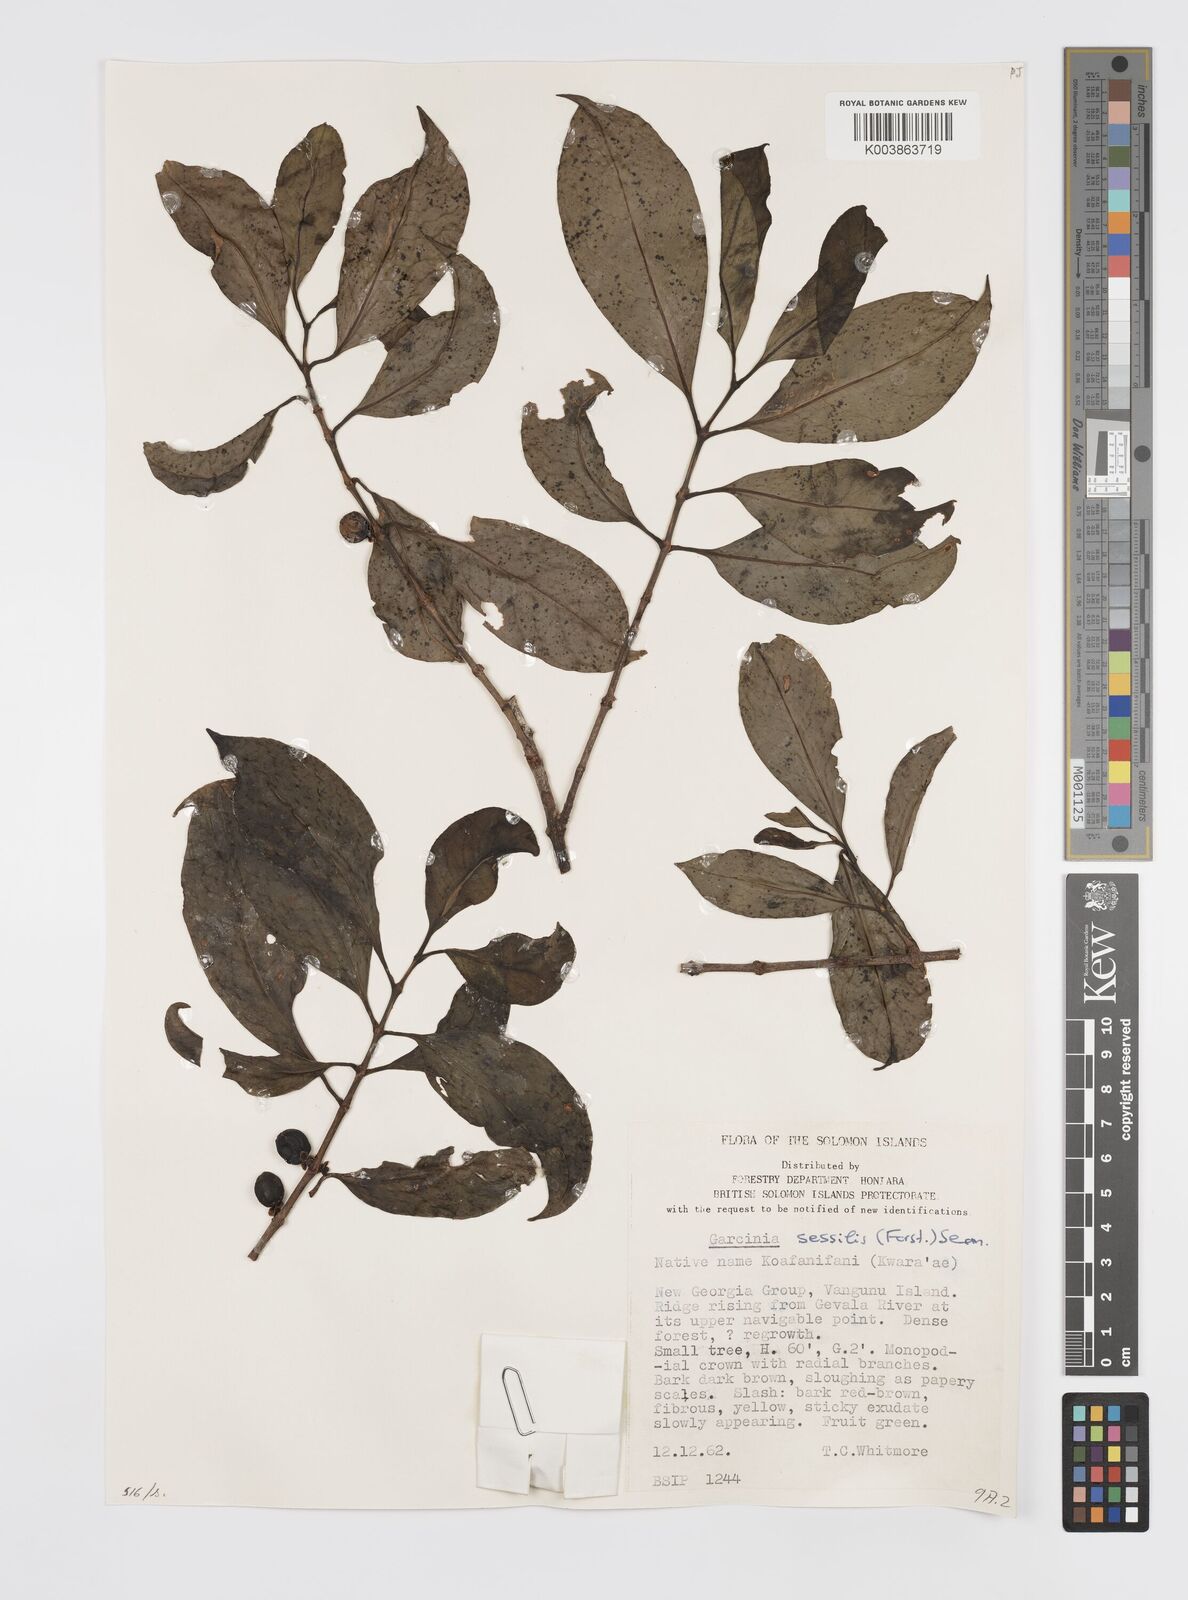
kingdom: Plantae
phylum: Tracheophyta
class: Magnoliopsida
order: Malpighiales
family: Clusiaceae
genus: Garcinia
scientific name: Garcinia sessilis
